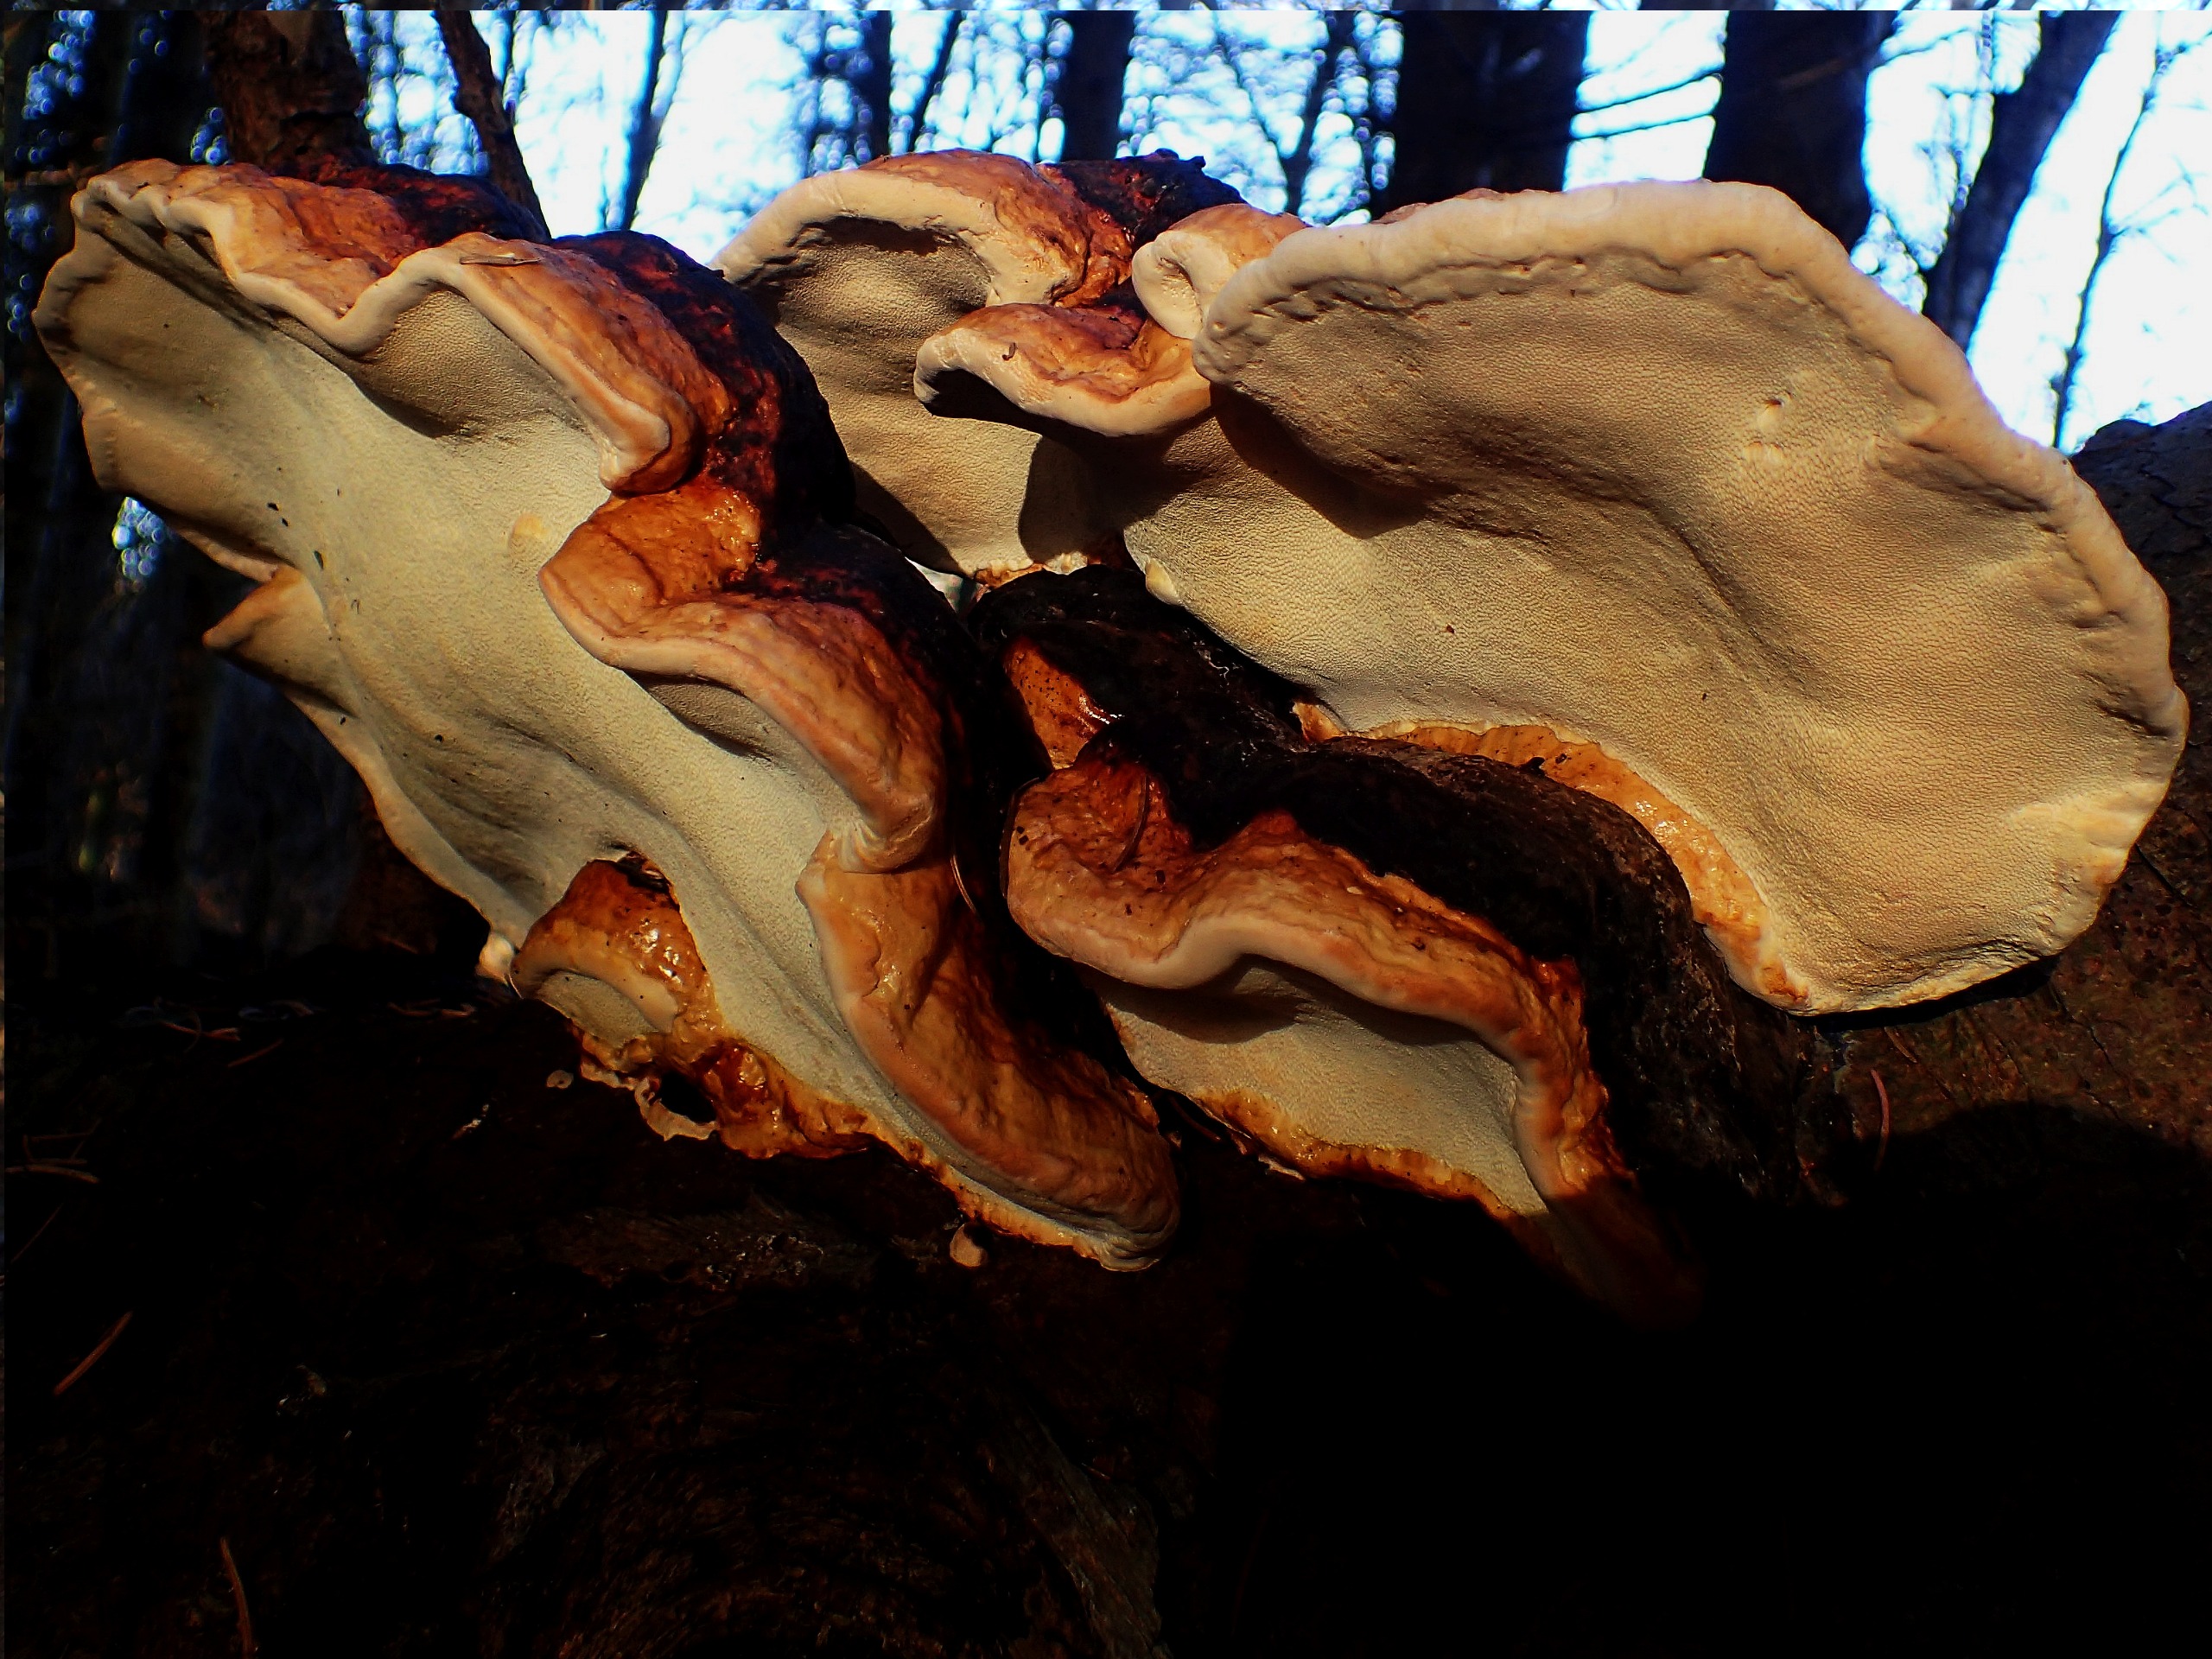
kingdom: Fungi
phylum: Basidiomycota
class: Agaricomycetes
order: Polyporales
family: Fomitopsidaceae
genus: Fomitopsis
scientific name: Fomitopsis pinicola
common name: Randbæltet hovporesvamp
